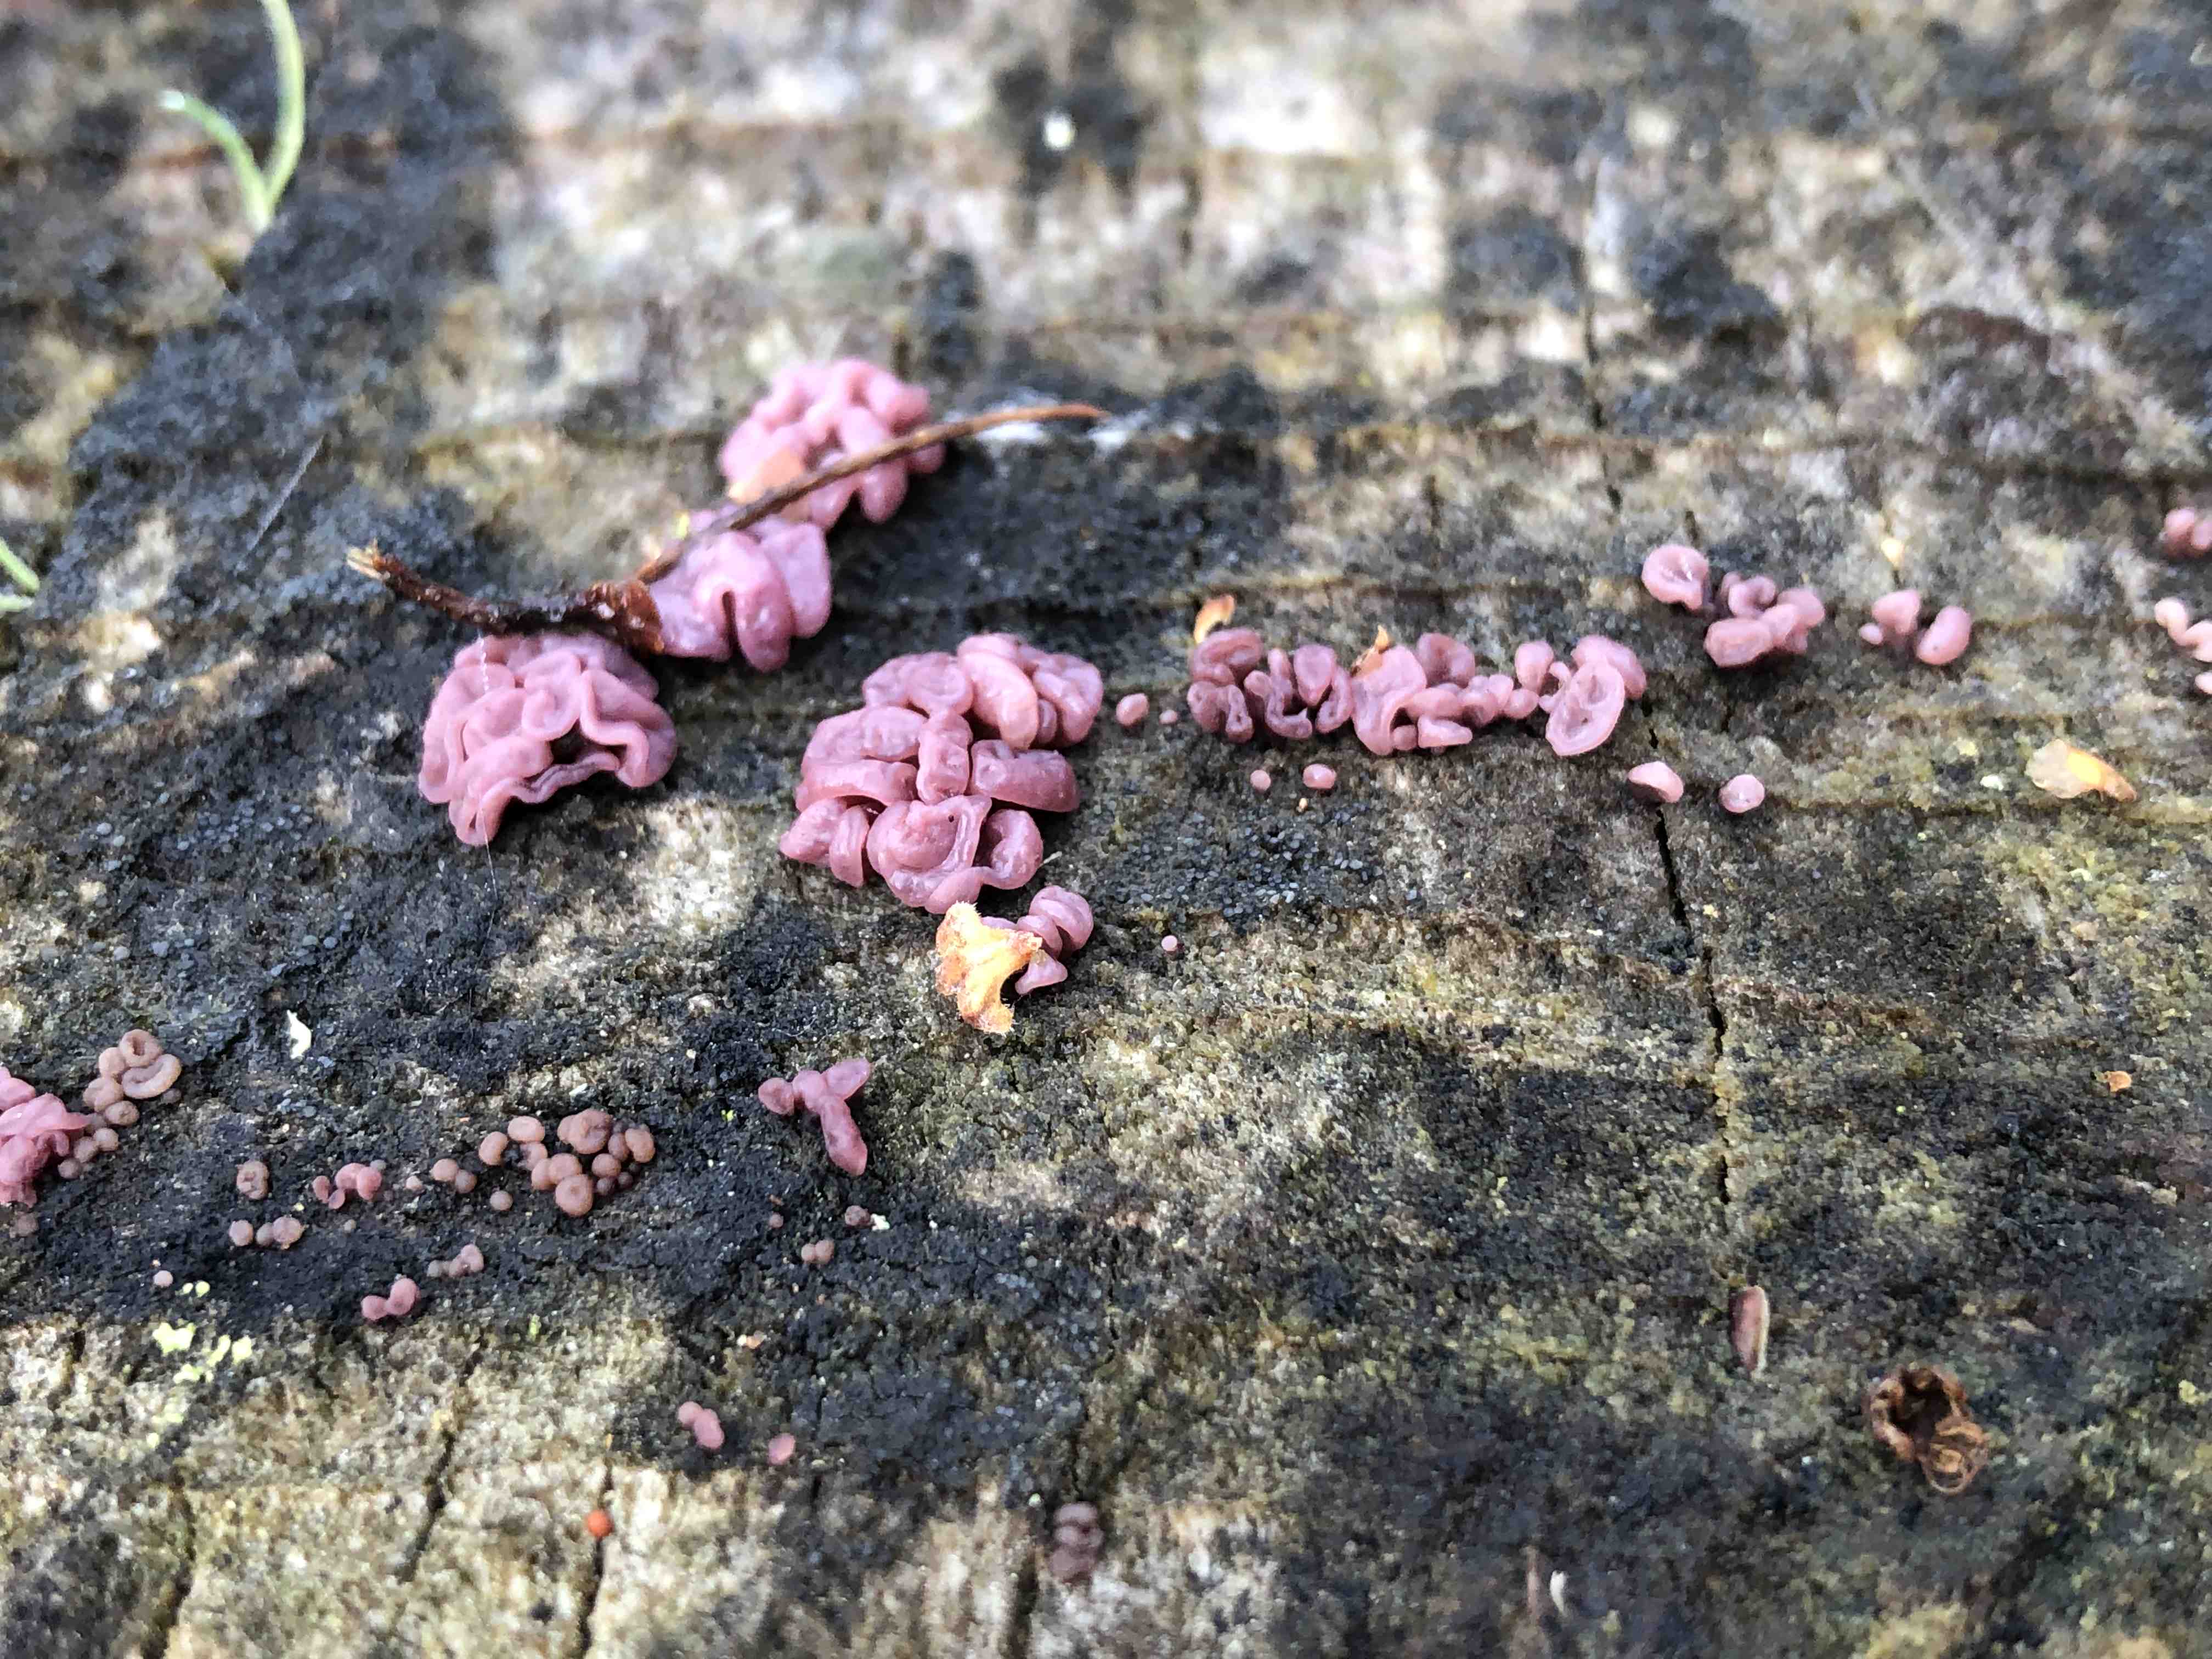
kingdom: Fungi
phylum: Ascomycota
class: Leotiomycetes
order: Helotiales
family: Gelatinodiscaceae
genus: Ascocoryne
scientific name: Ascocoryne sarcoides
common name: rødlilla sejskive
